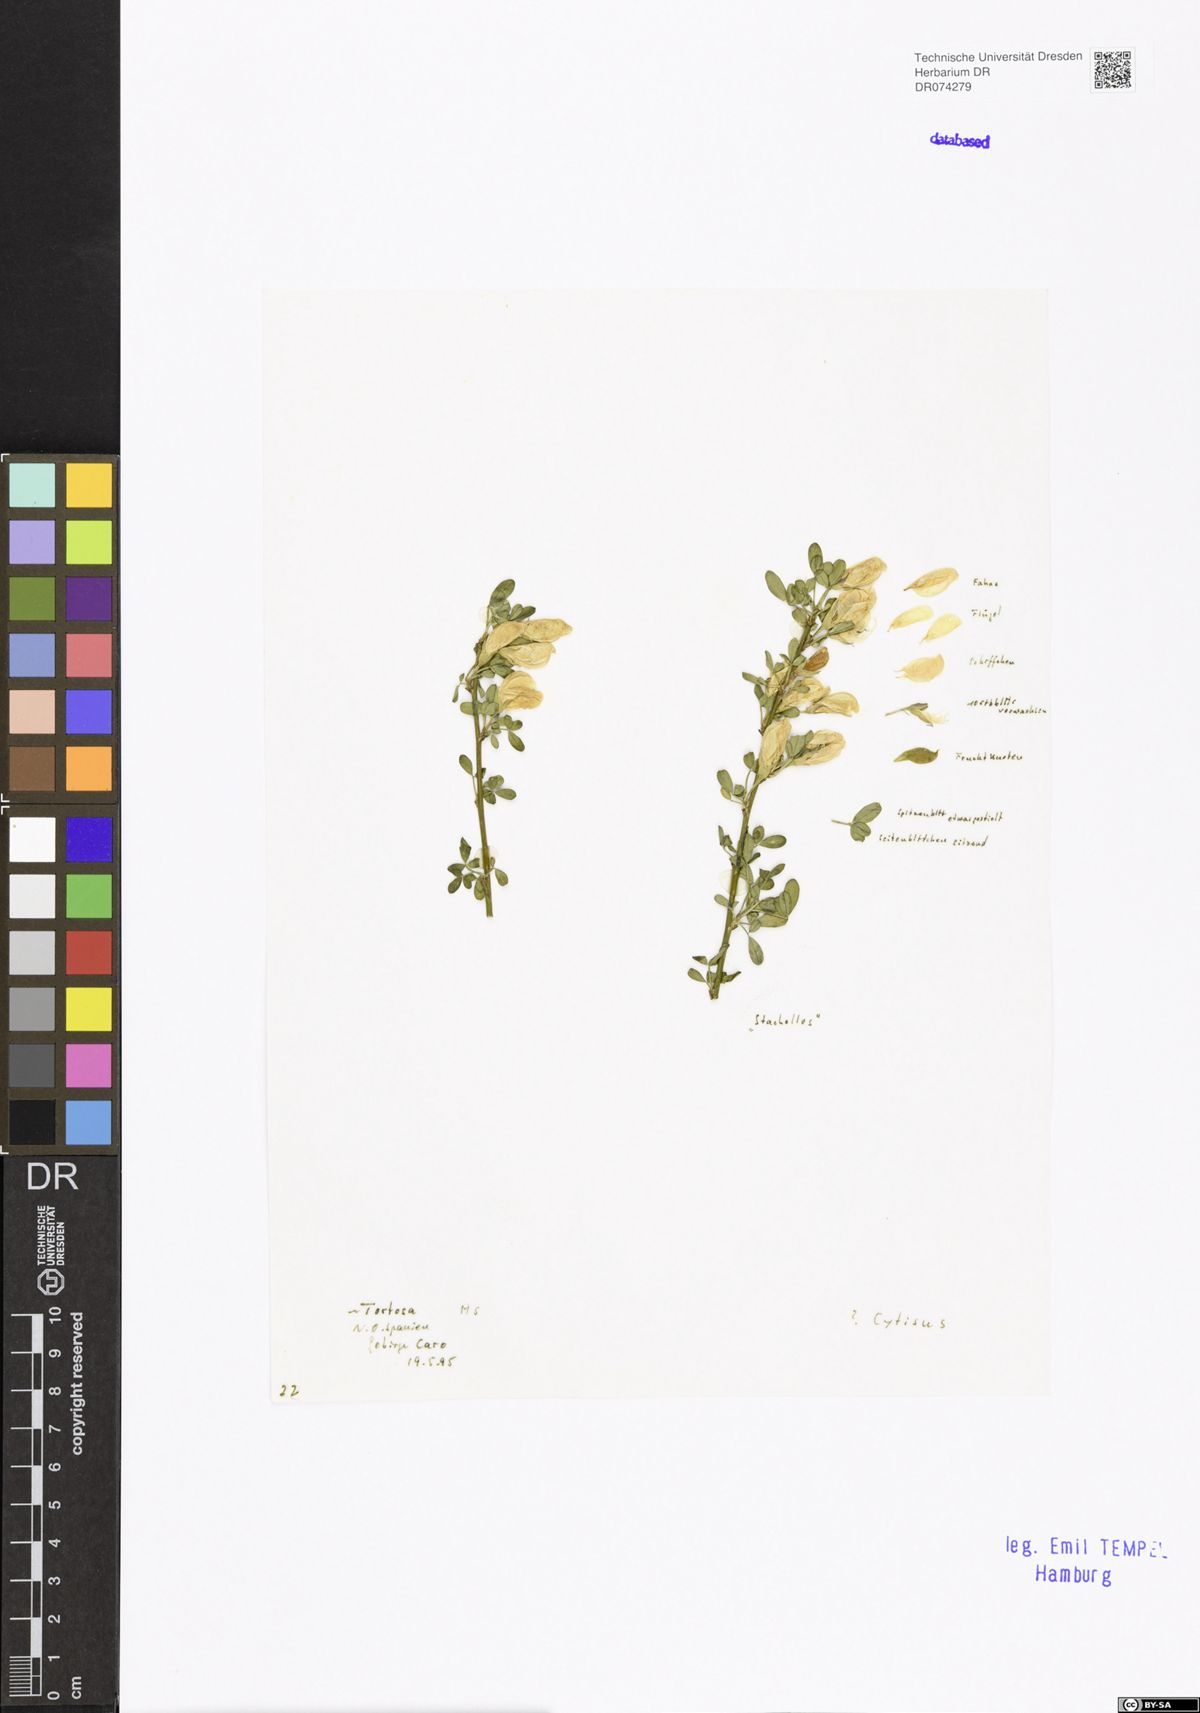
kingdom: Plantae
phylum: Tracheophyta
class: Magnoliopsida
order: Fabales
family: Fabaceae
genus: Cytisus
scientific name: Cytisus
